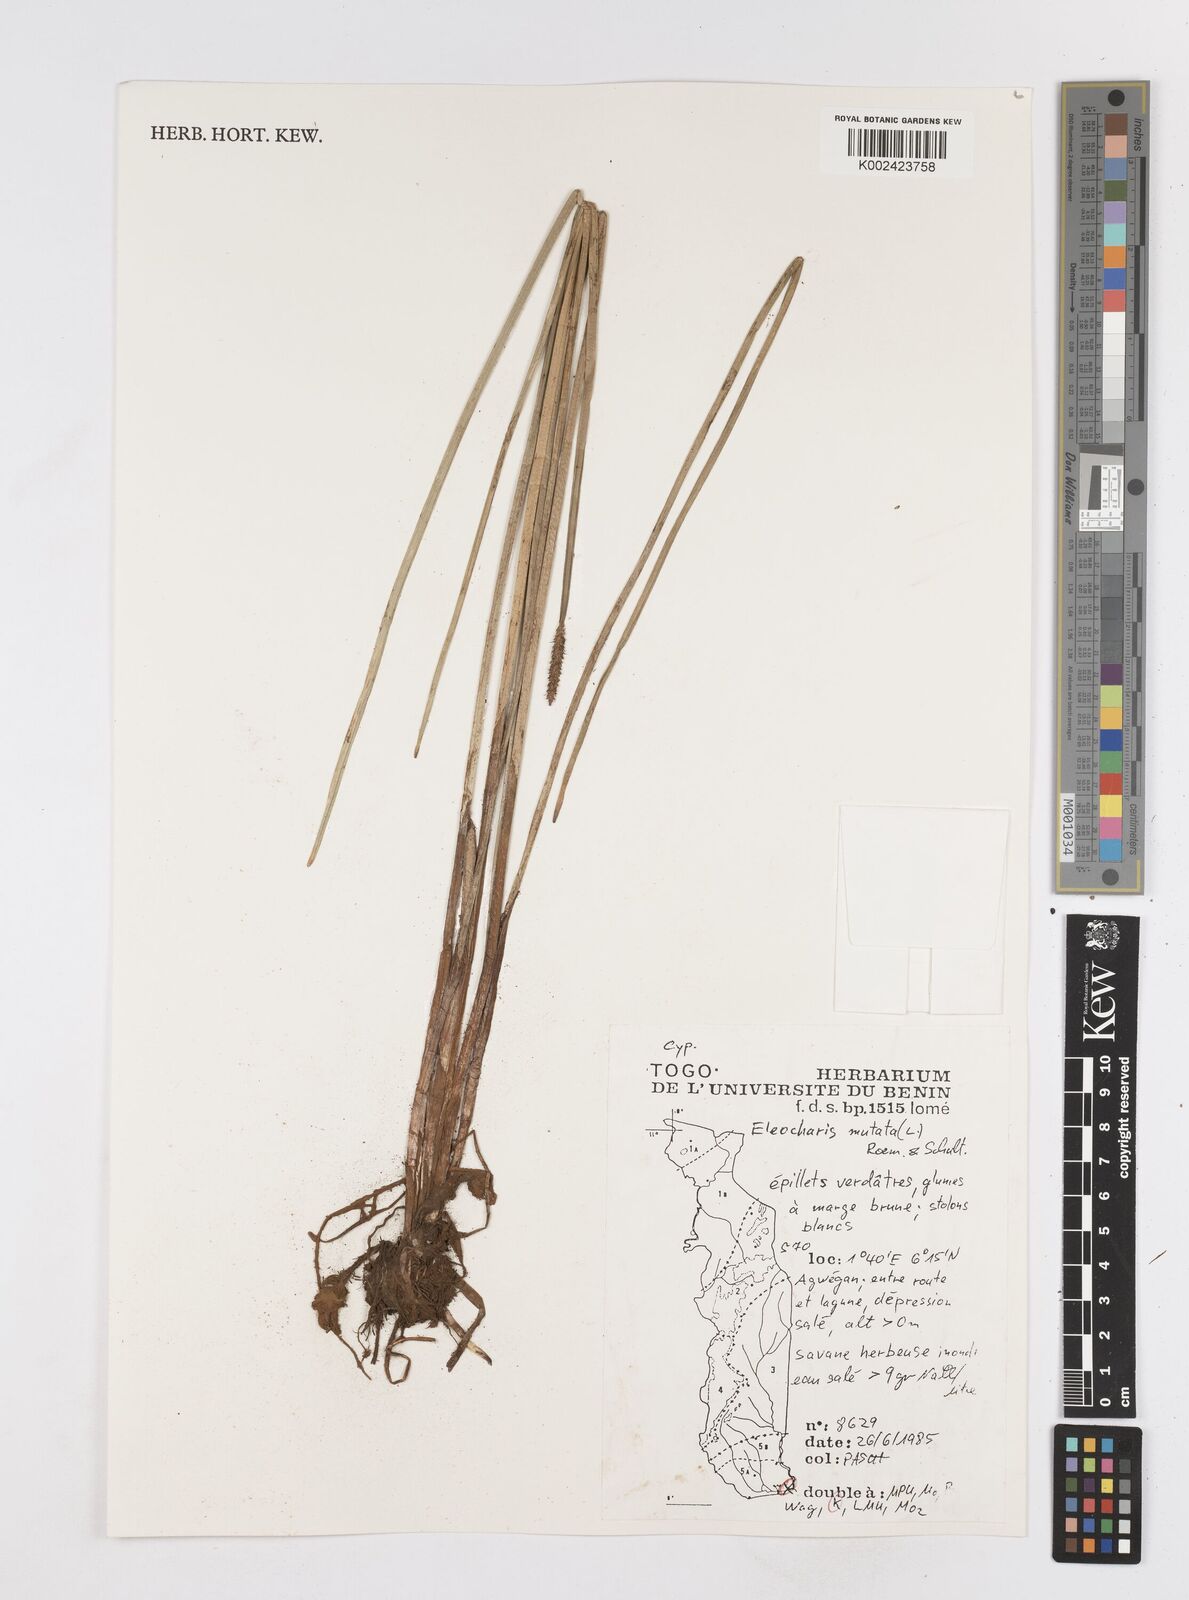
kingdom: Plantae
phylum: Tracheophyta
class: Liliopsida
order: Poales
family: Cyperaceae
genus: Eleocharis
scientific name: Eleocharis mutata
